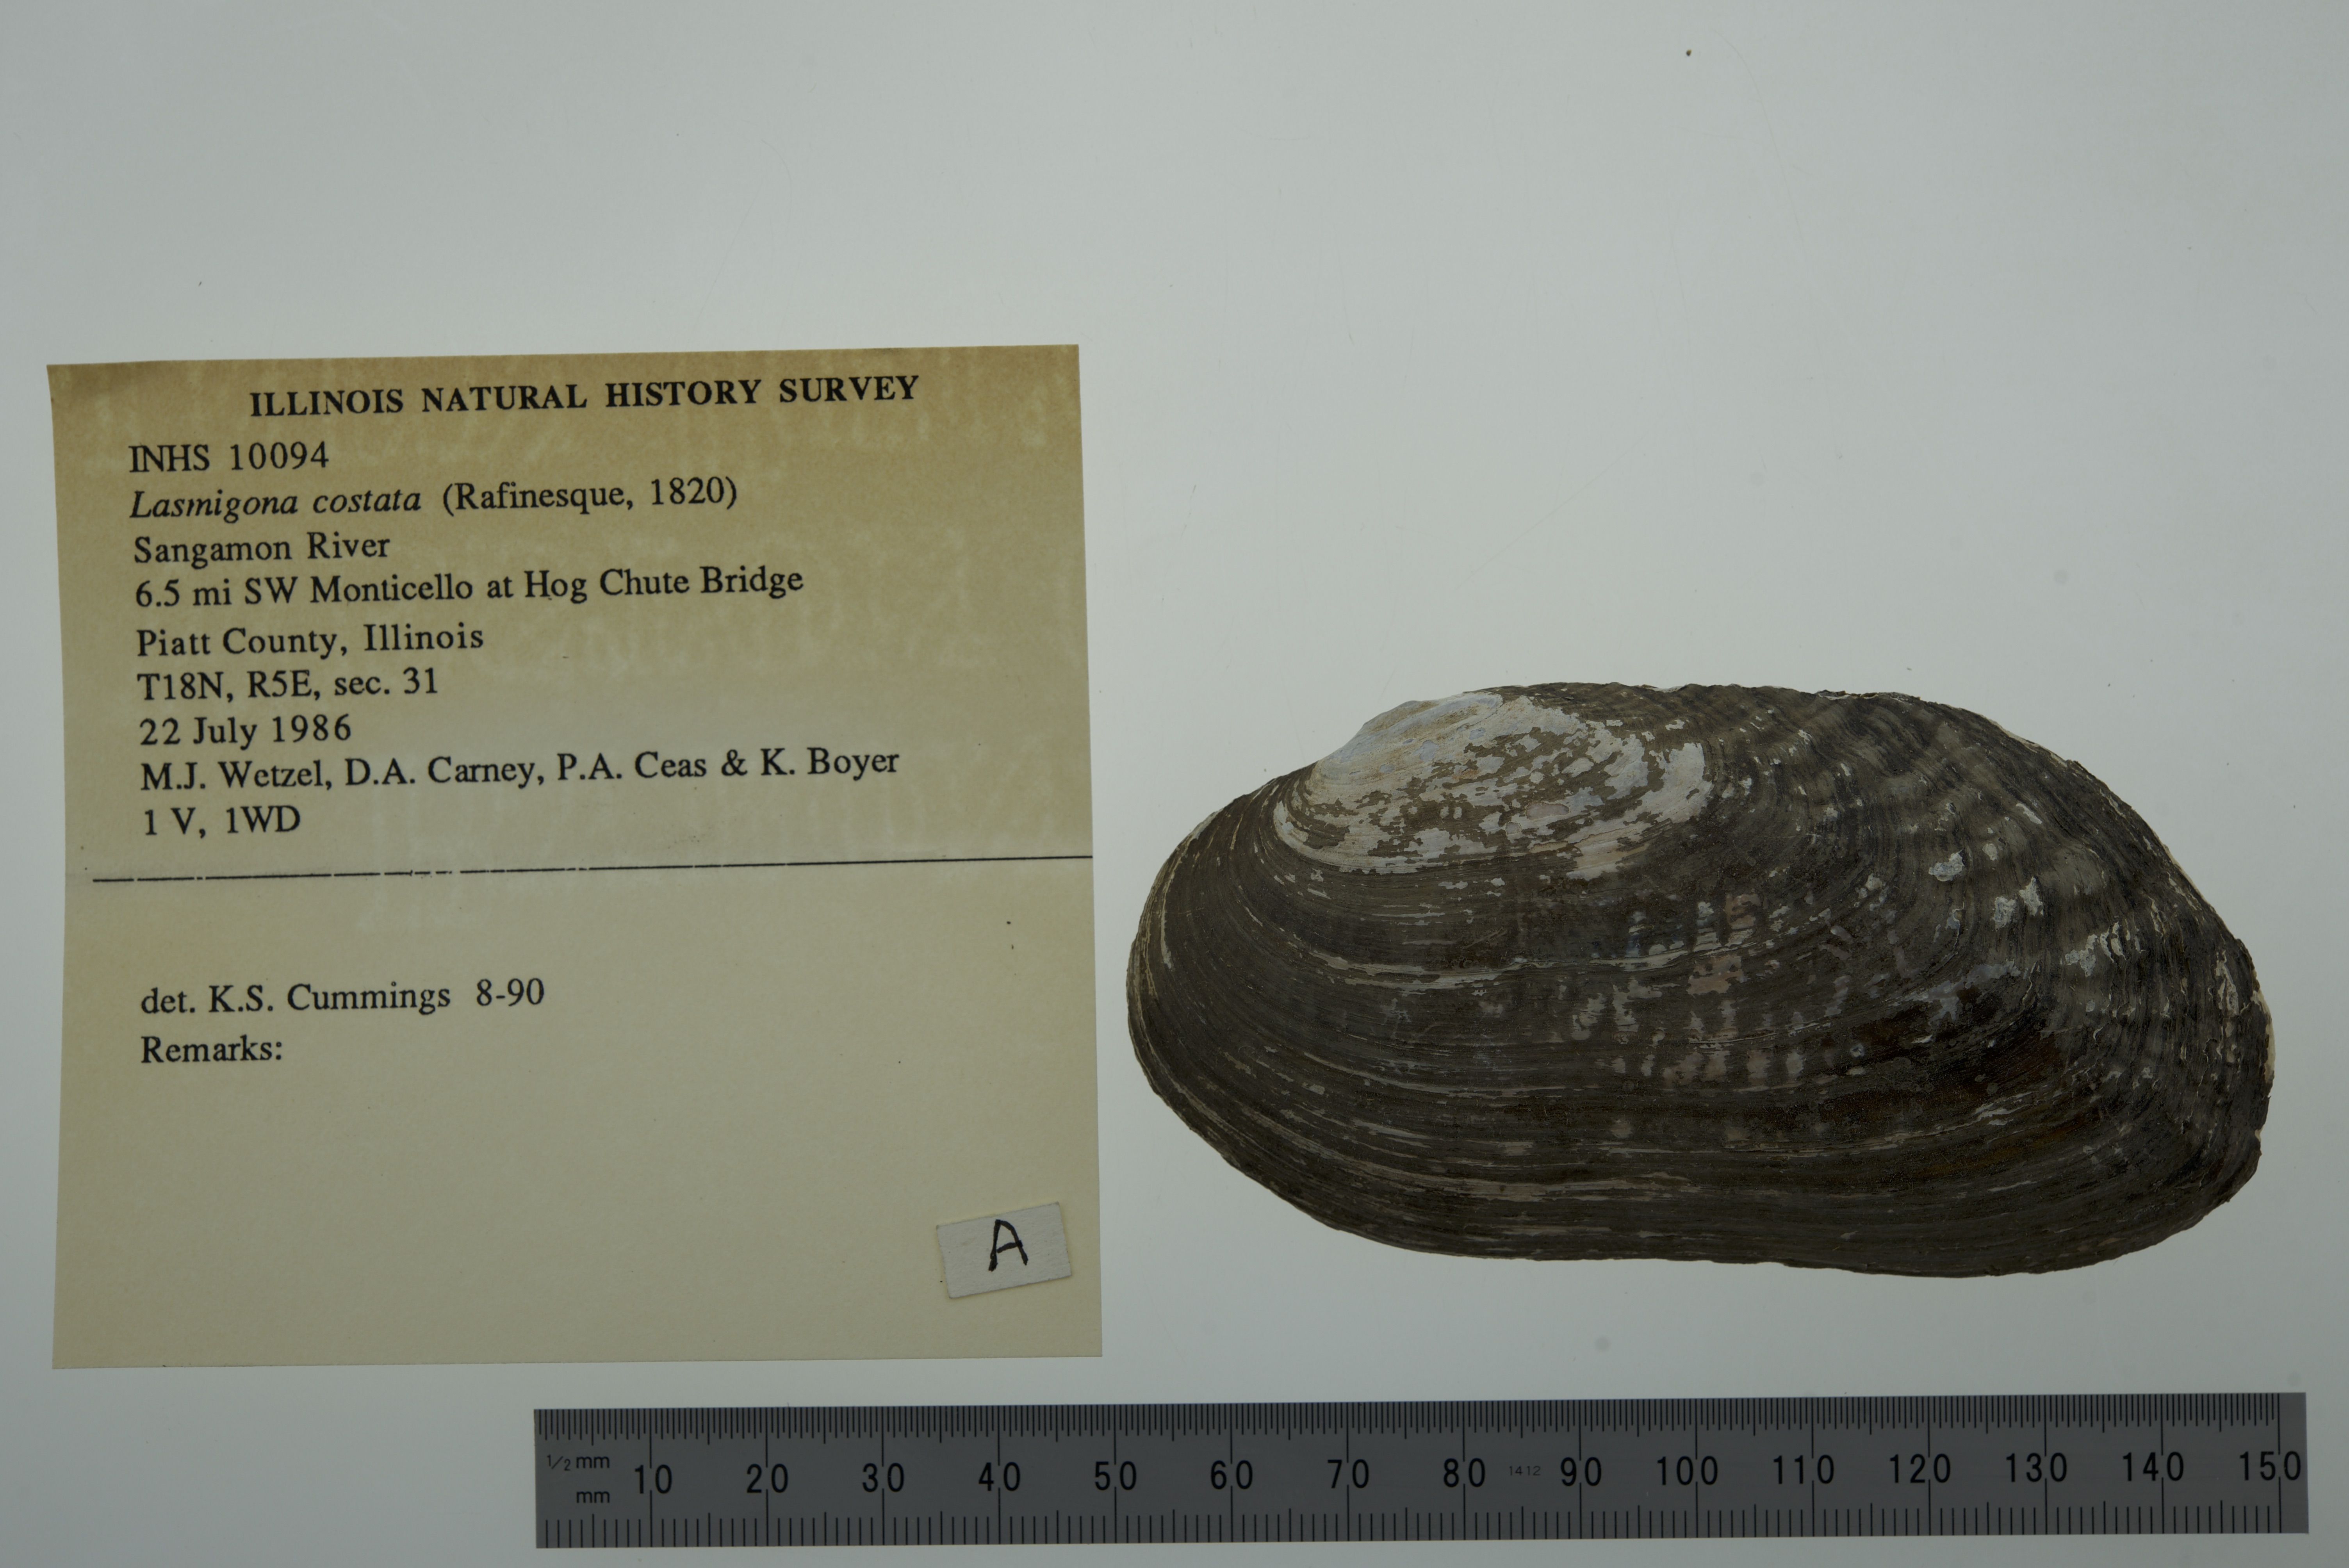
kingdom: Animalia
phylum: Mollusca
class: Bivalvia
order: Unionida
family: Unionidae
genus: Lasmigona
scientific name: Lasmigona costata
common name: Flutedshell
